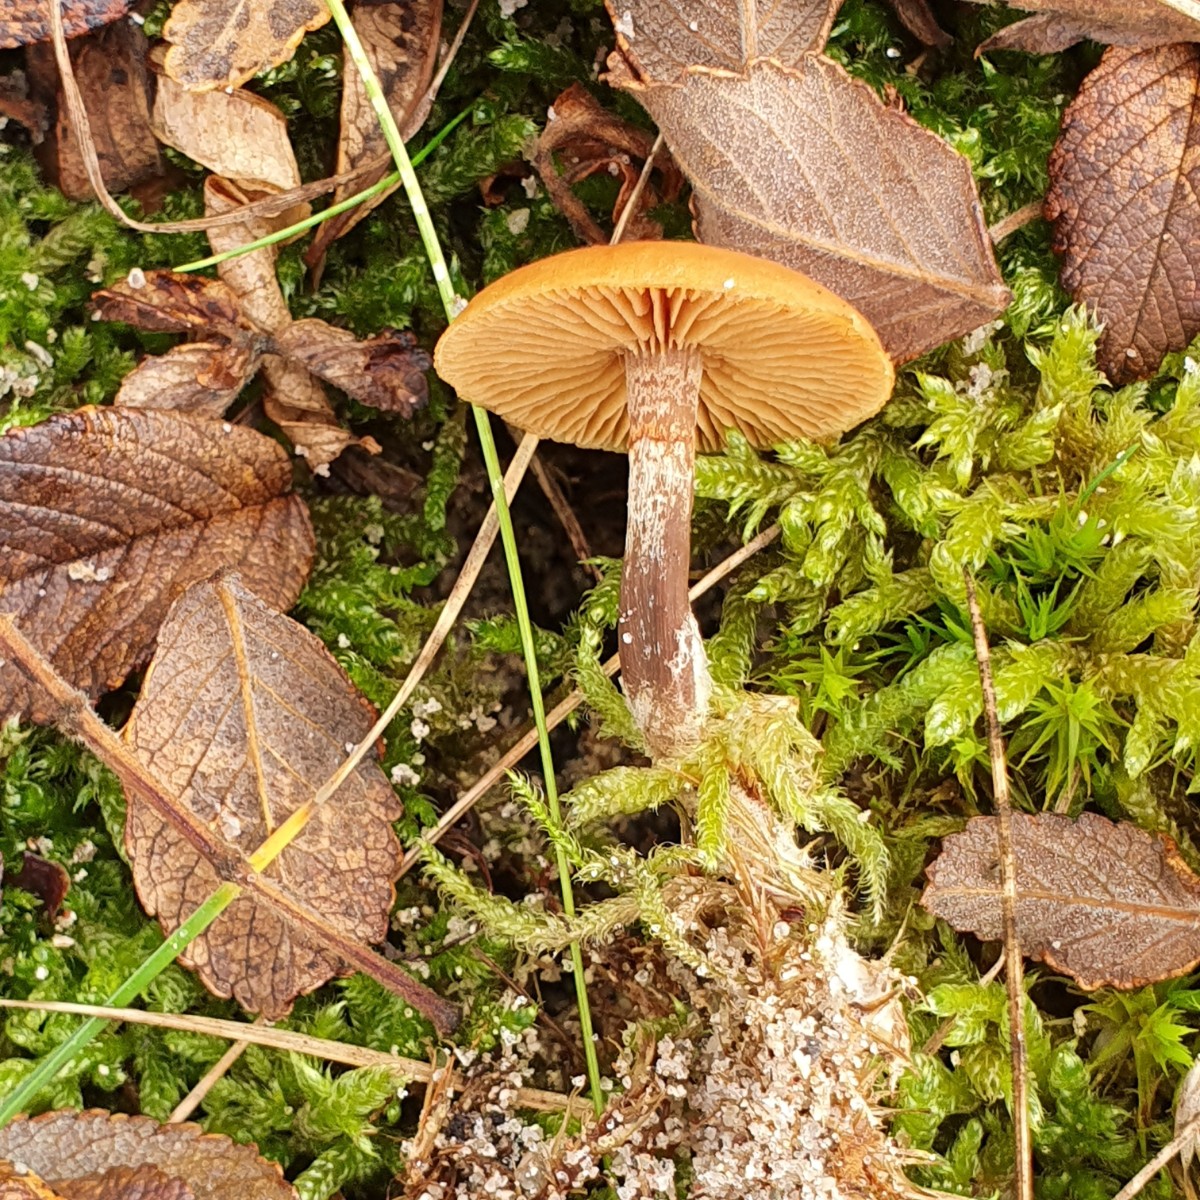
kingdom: Fungi
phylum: Basidiomycota
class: Agaricomycetes
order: Agaricales
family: Hymenogastraceae
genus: Galerina
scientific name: Galerina esteve-raventosii
